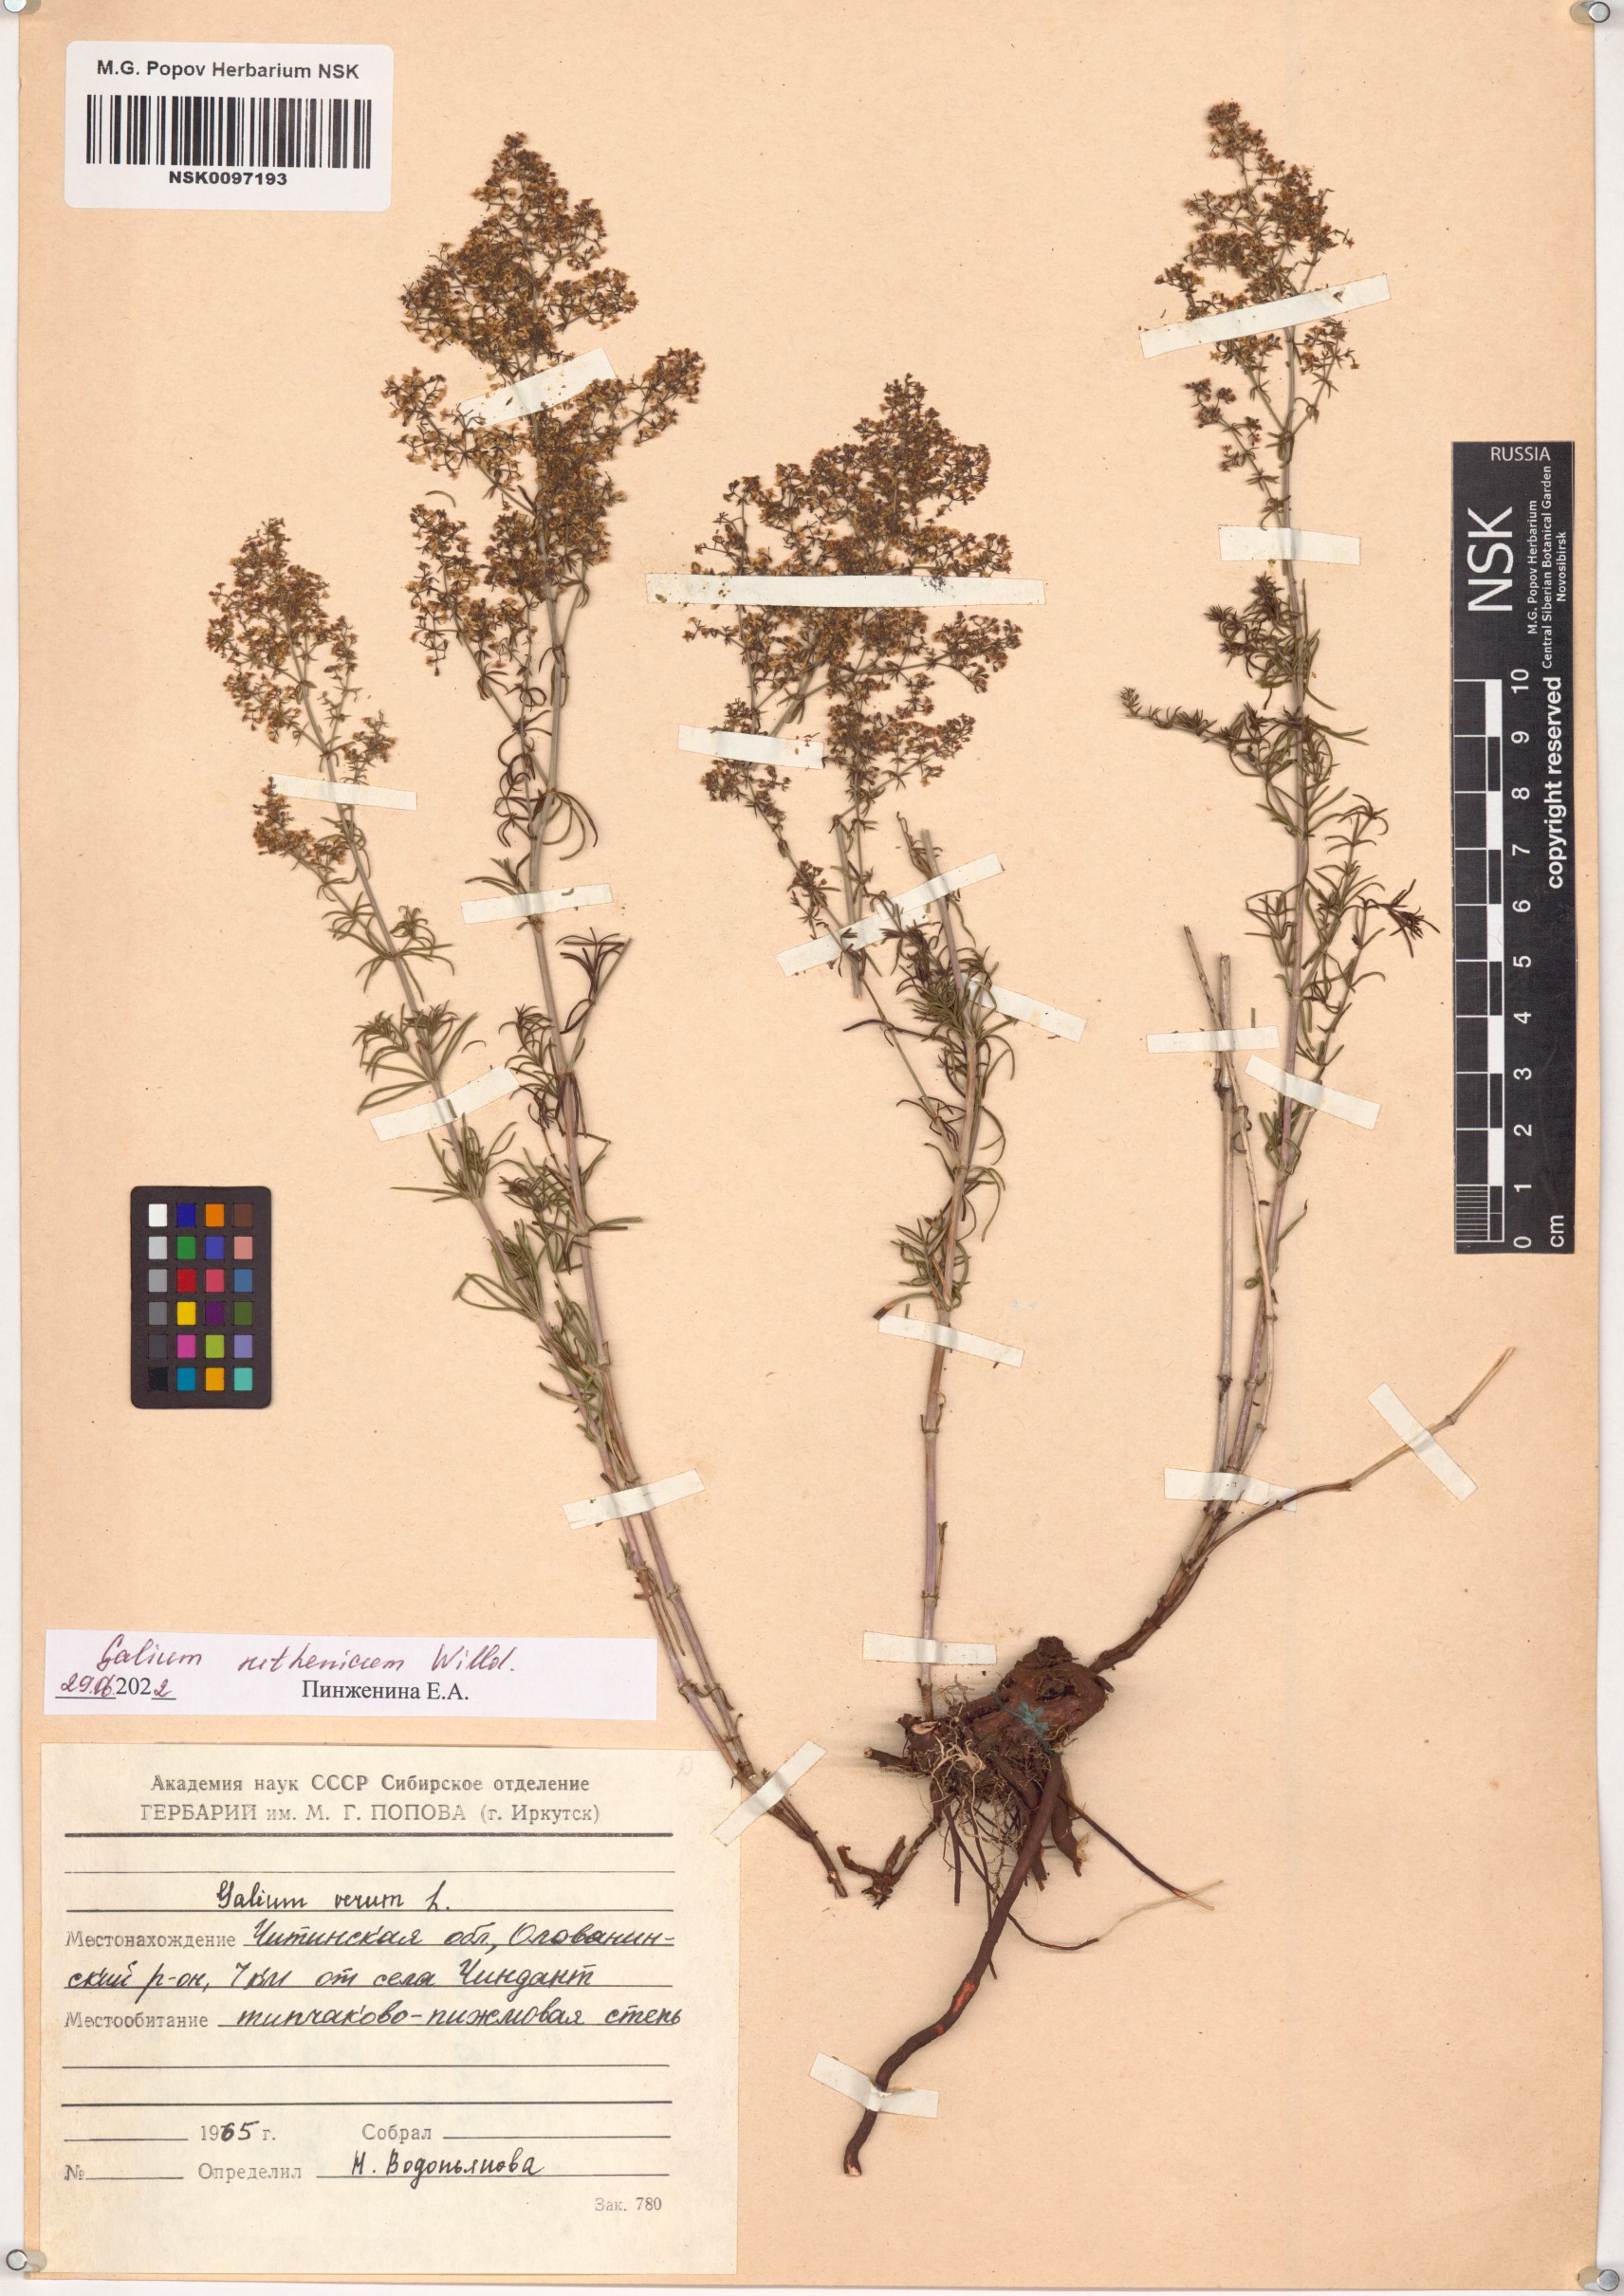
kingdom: Plantae
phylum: Tracheophyta
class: Magnoliopsida
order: Gentianales
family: Rubiaceae
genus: Galium
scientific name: Galium verum
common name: Lady's bedstraw
